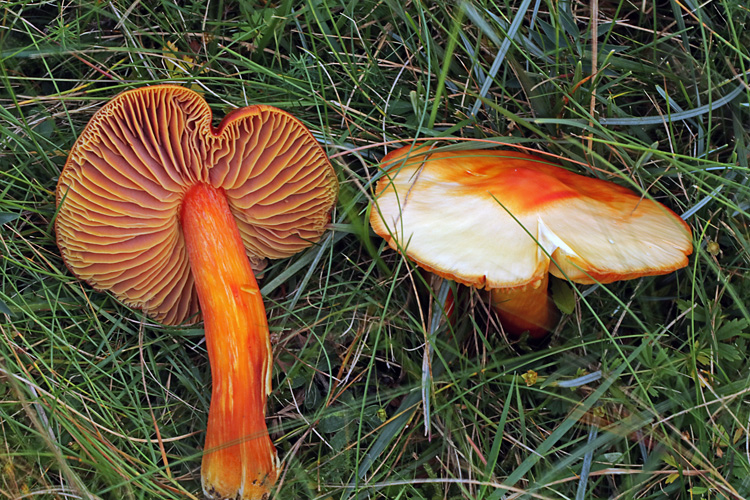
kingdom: Fungi
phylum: Basidiomycota
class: Agaricomycetes
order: Agaricales
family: Hygrophoraceae
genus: Hygrocybe
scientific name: Hygrocybe punicea
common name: skarlagen-vokshat
